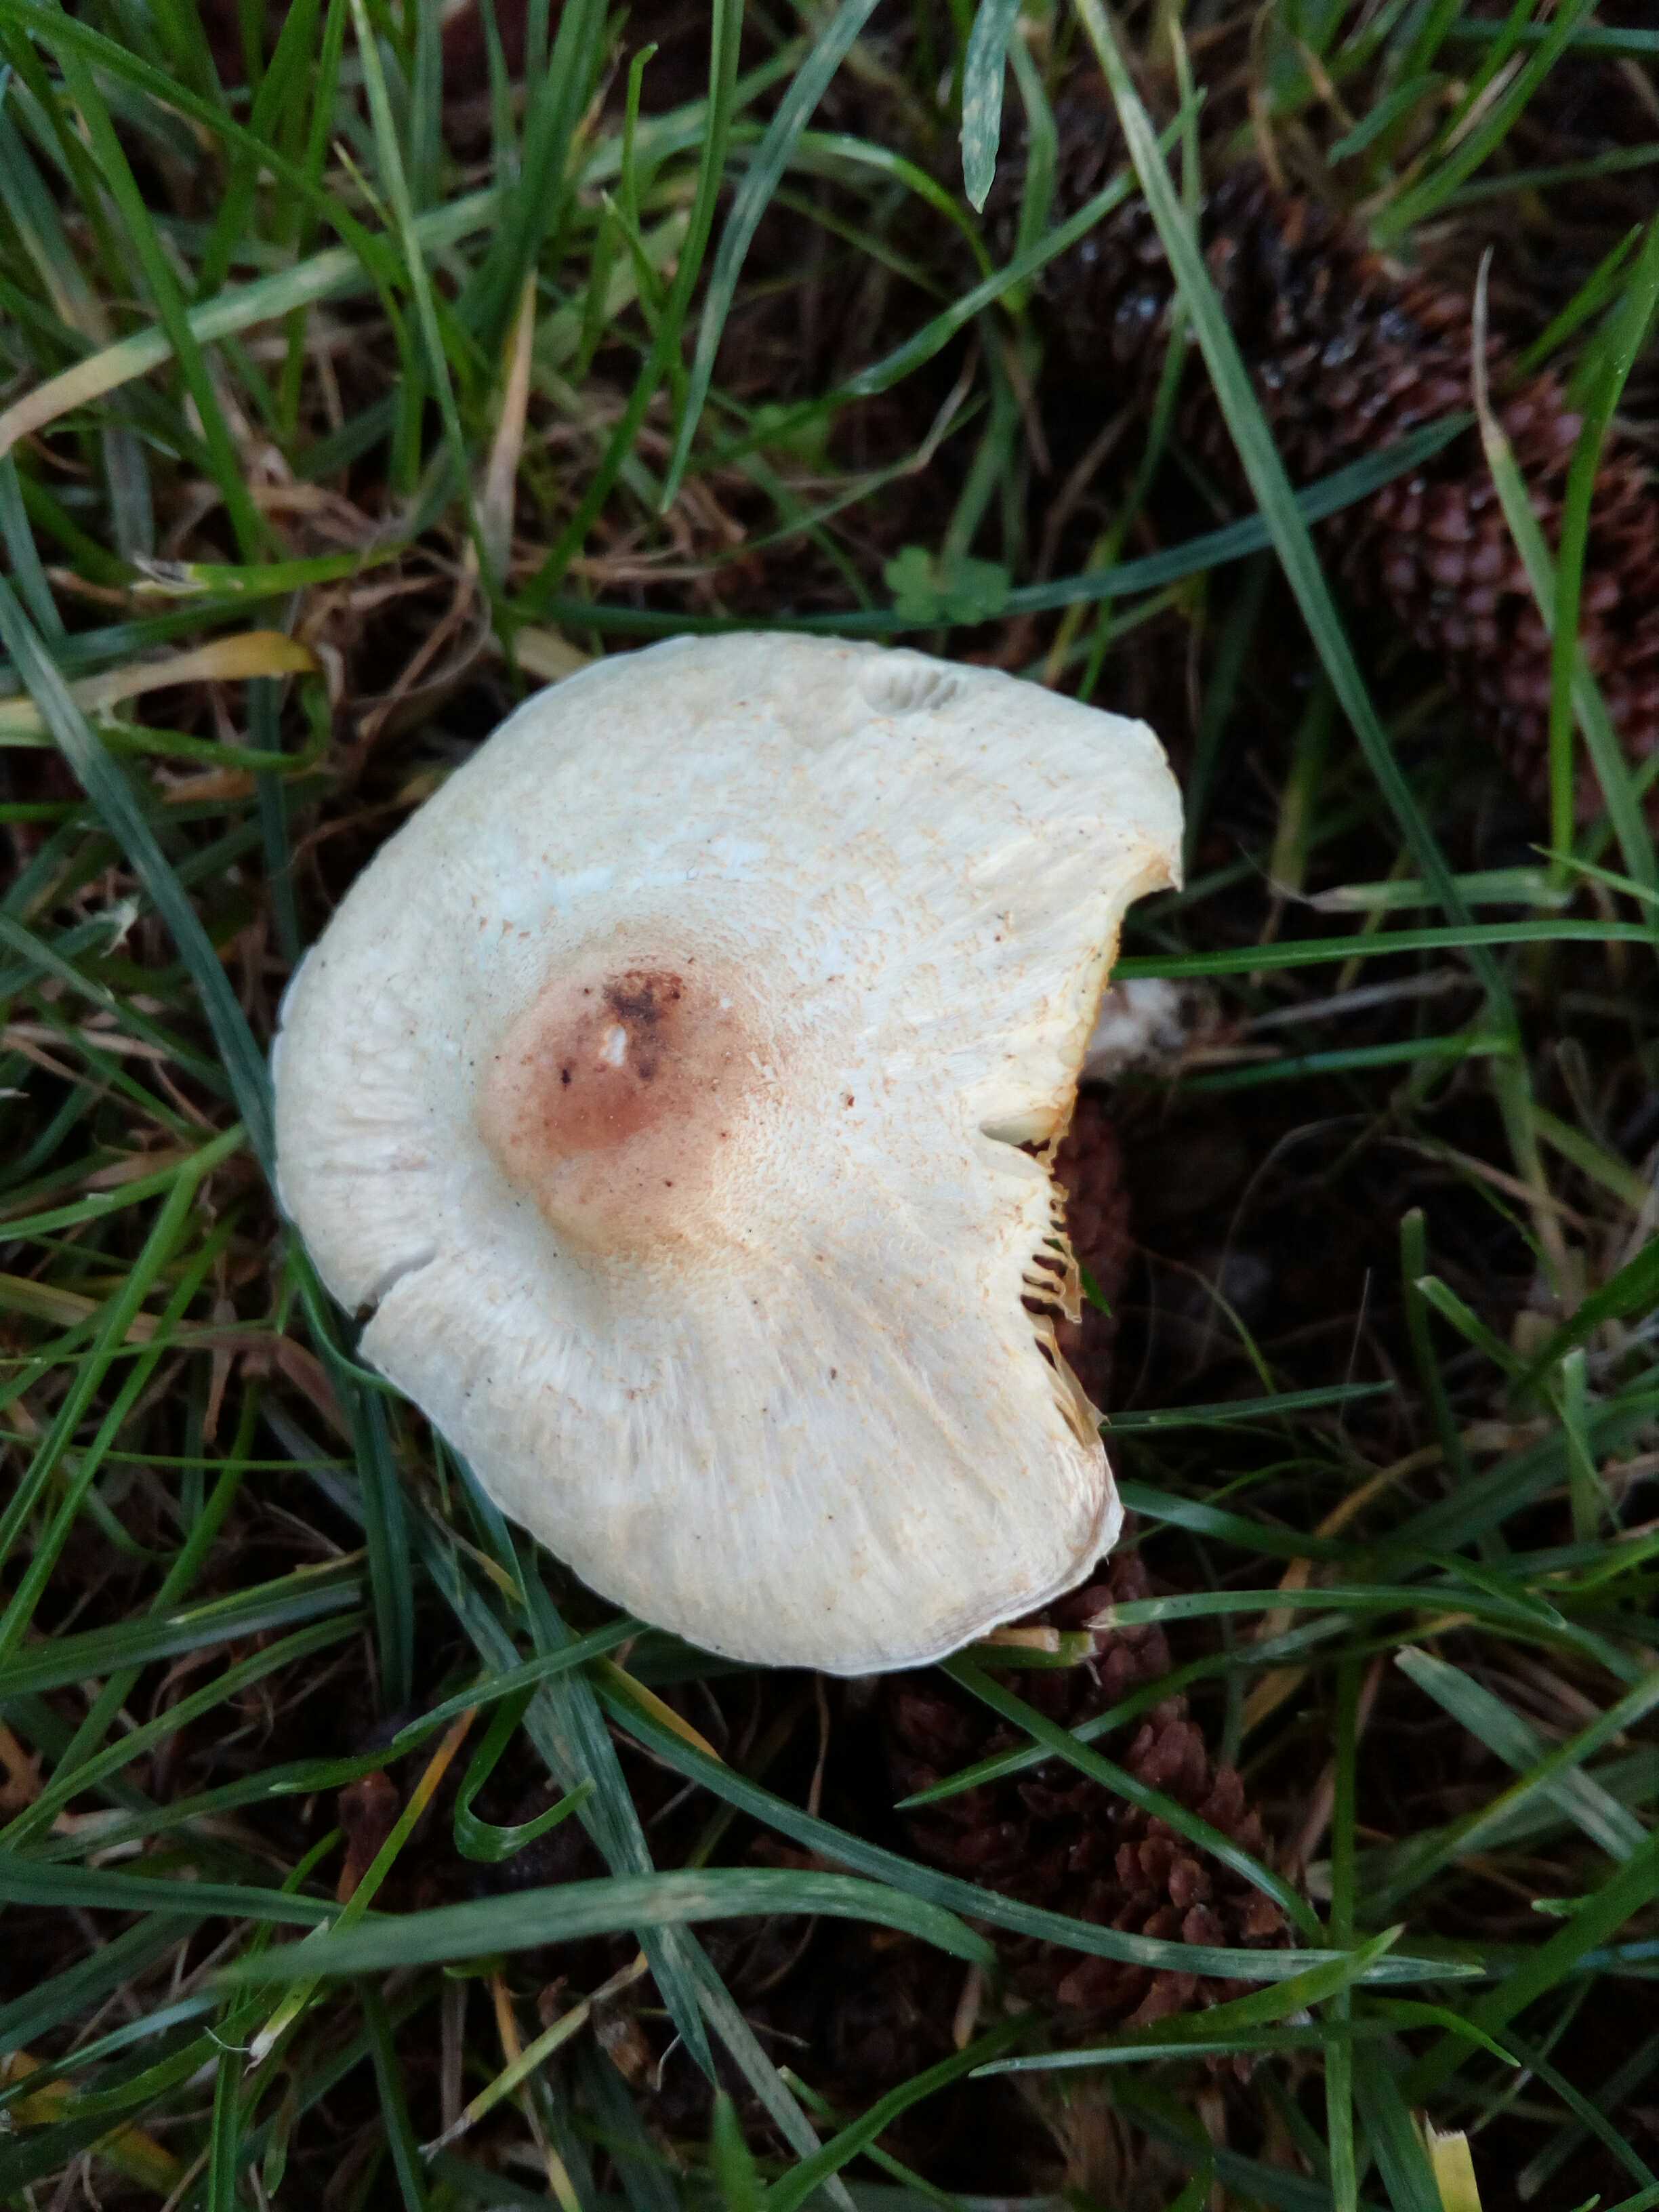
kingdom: Fungi
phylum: Basidiomycota
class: Agaricomycetes
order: Agaricales
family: Agaricaceae
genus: Lepiota
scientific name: Lepiota cristata
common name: stinkende parasolhat
